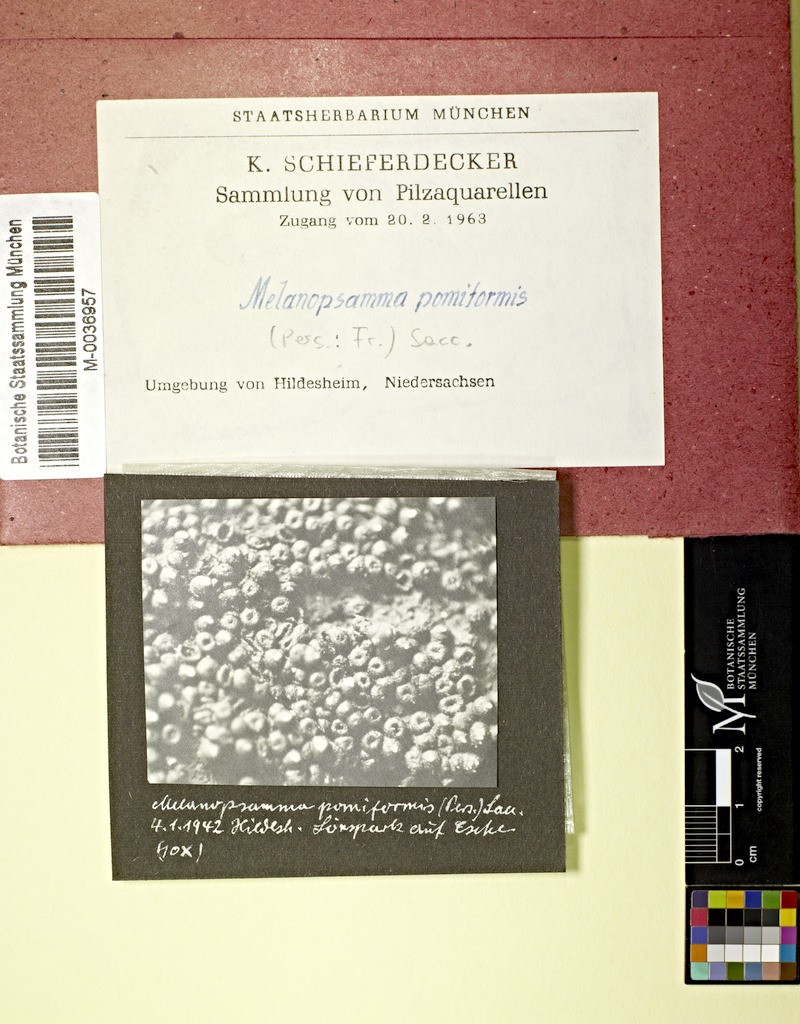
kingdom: Fungi
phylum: Ascomycota
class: Sordariomycetes
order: Hypocreales
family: Niessliaceae
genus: Melanopsamma
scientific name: Melanopsamma pomiformis
